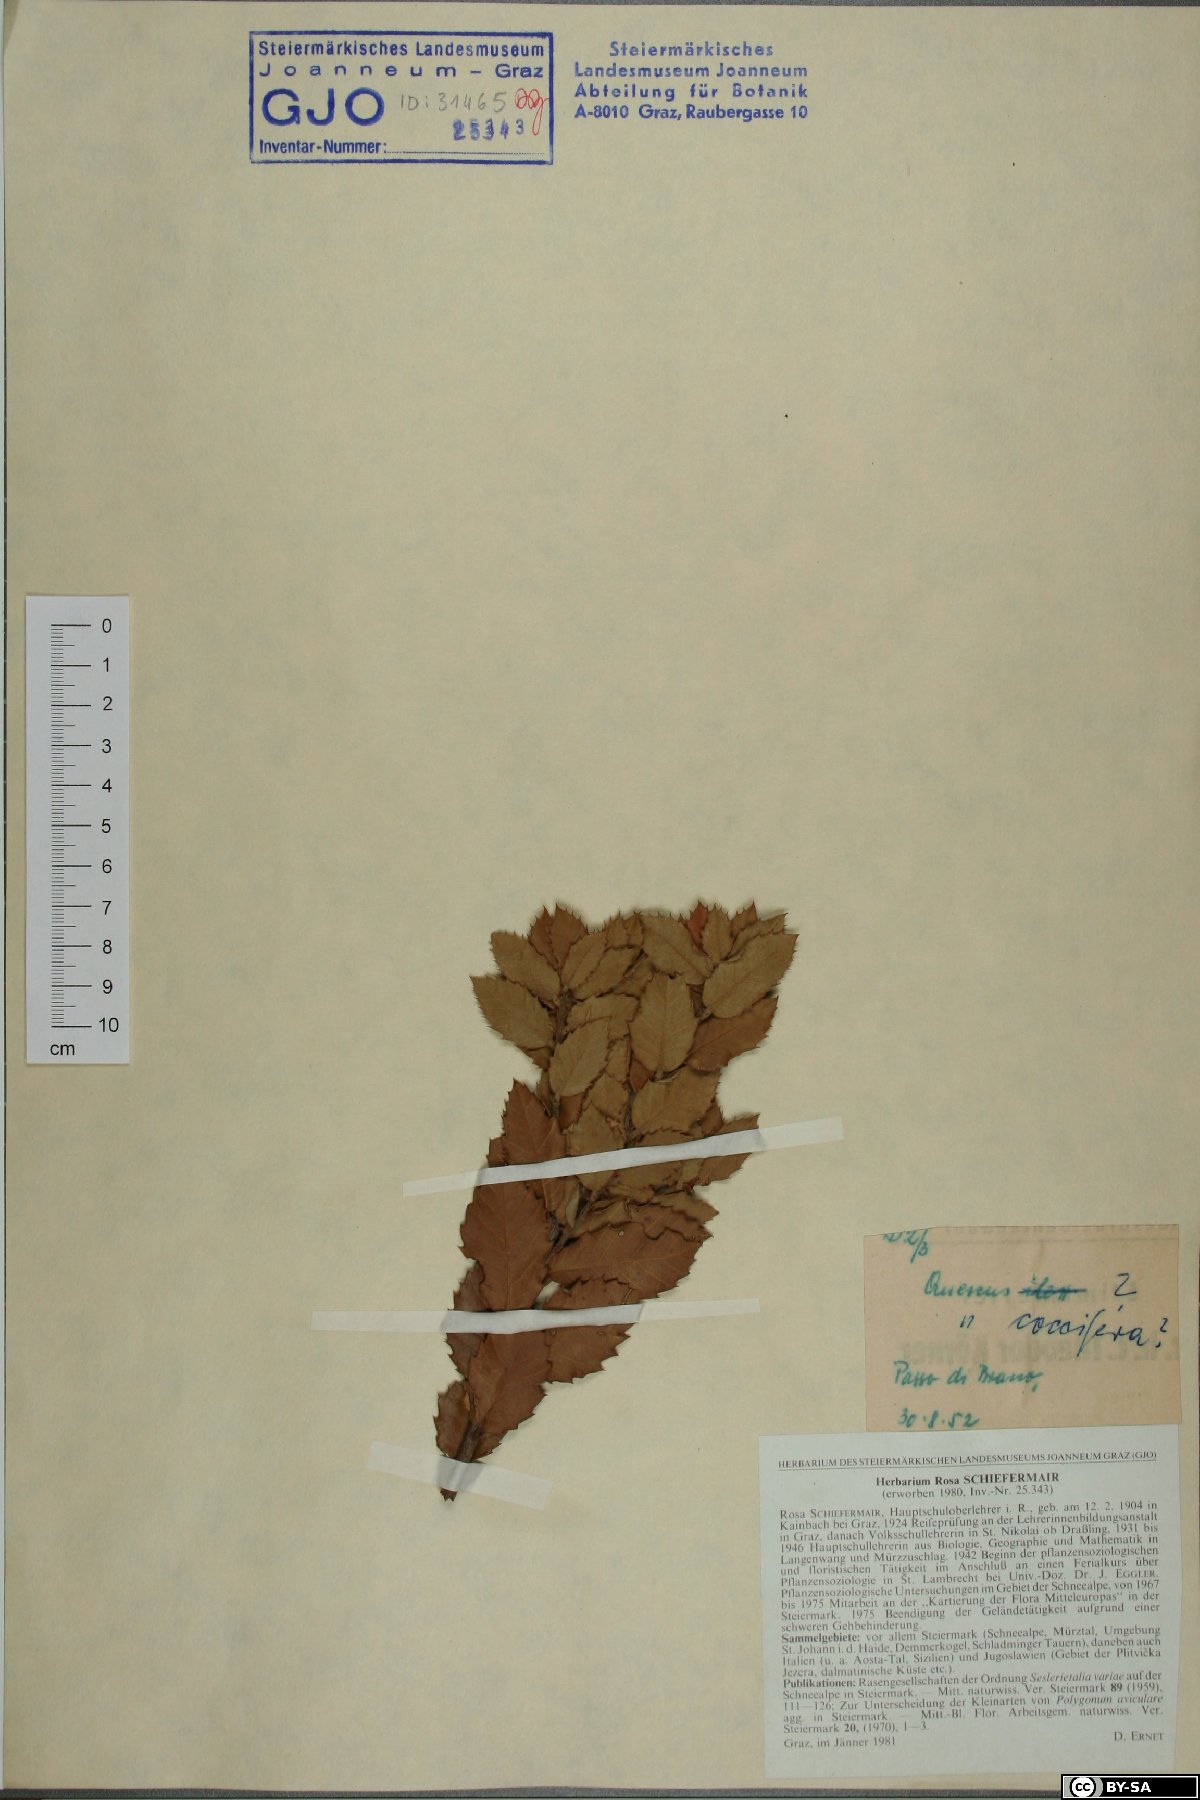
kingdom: Plantae
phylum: Tracheophyta
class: Magnoliopsida
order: Fagales
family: Fagaceae
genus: Quercus
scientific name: Quercus coccifera
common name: Kermes oak
